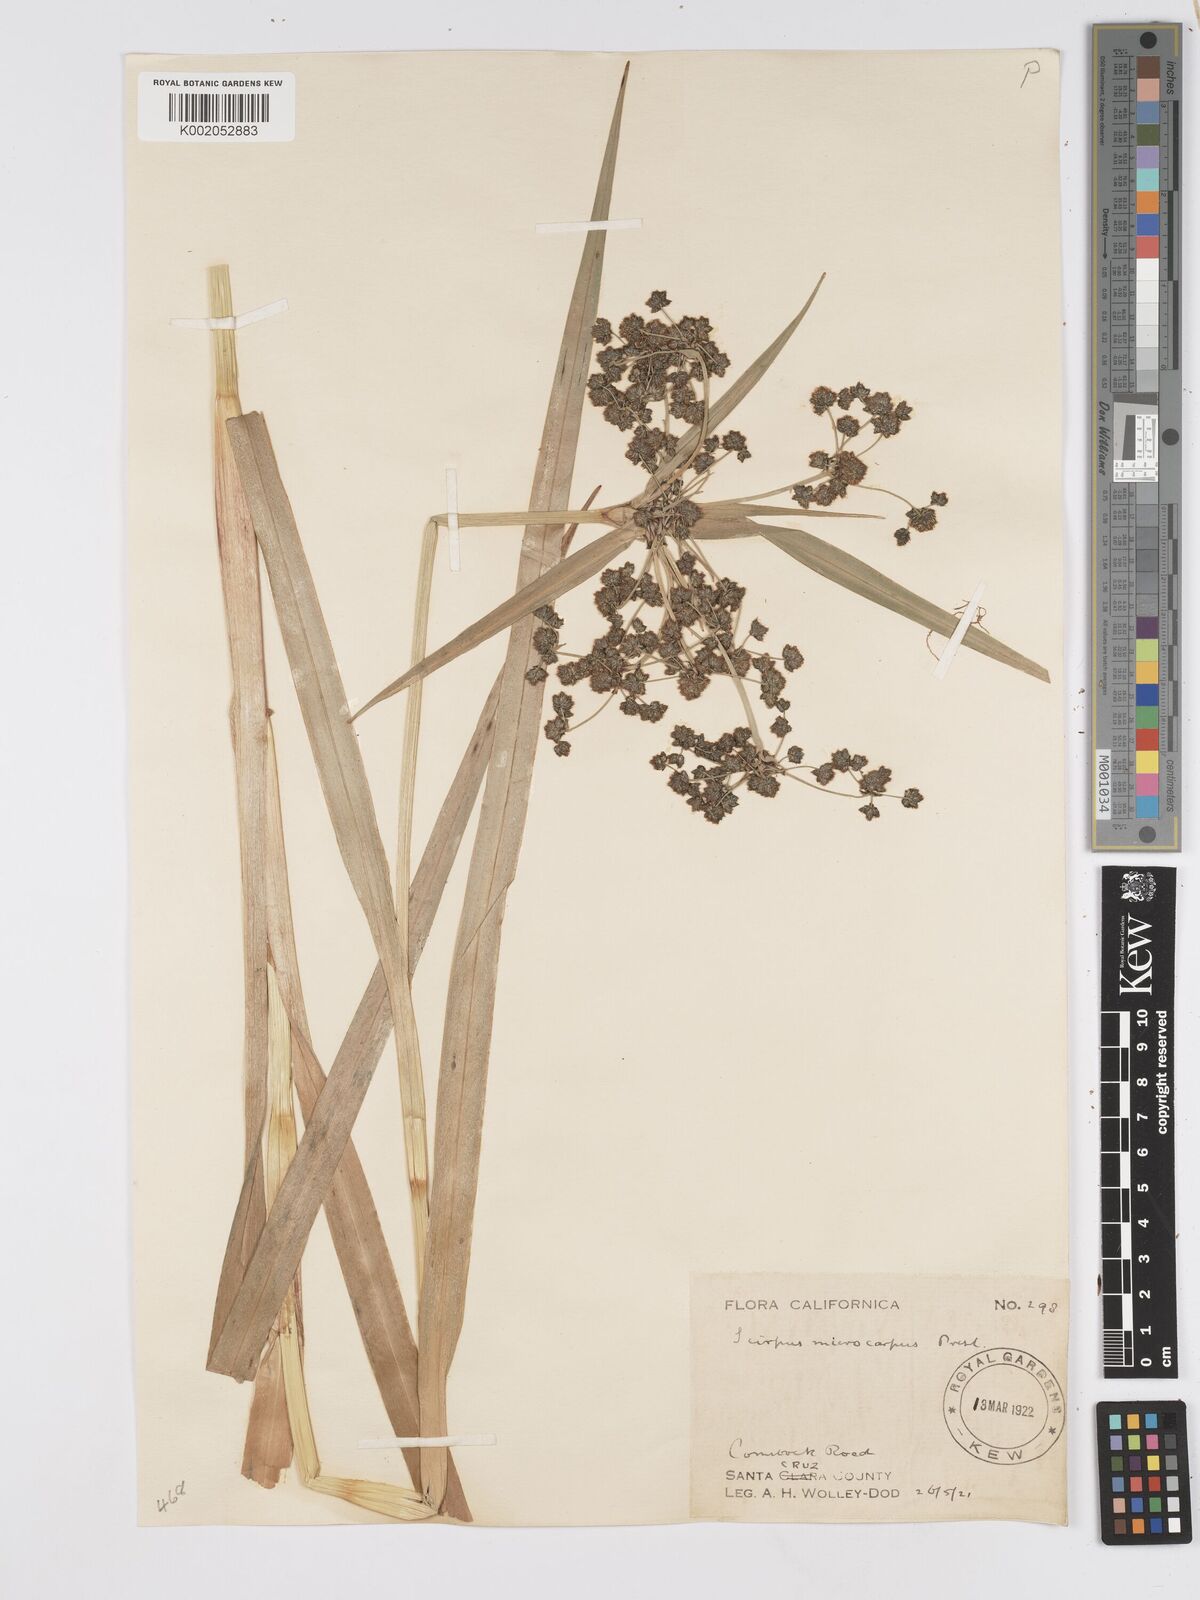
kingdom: Plantae
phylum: Tracheophyta
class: Liliopsida
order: Poales
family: Cyperaceae
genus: Scirpus
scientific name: Scirpus microcarpus
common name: Panicled bulrush
